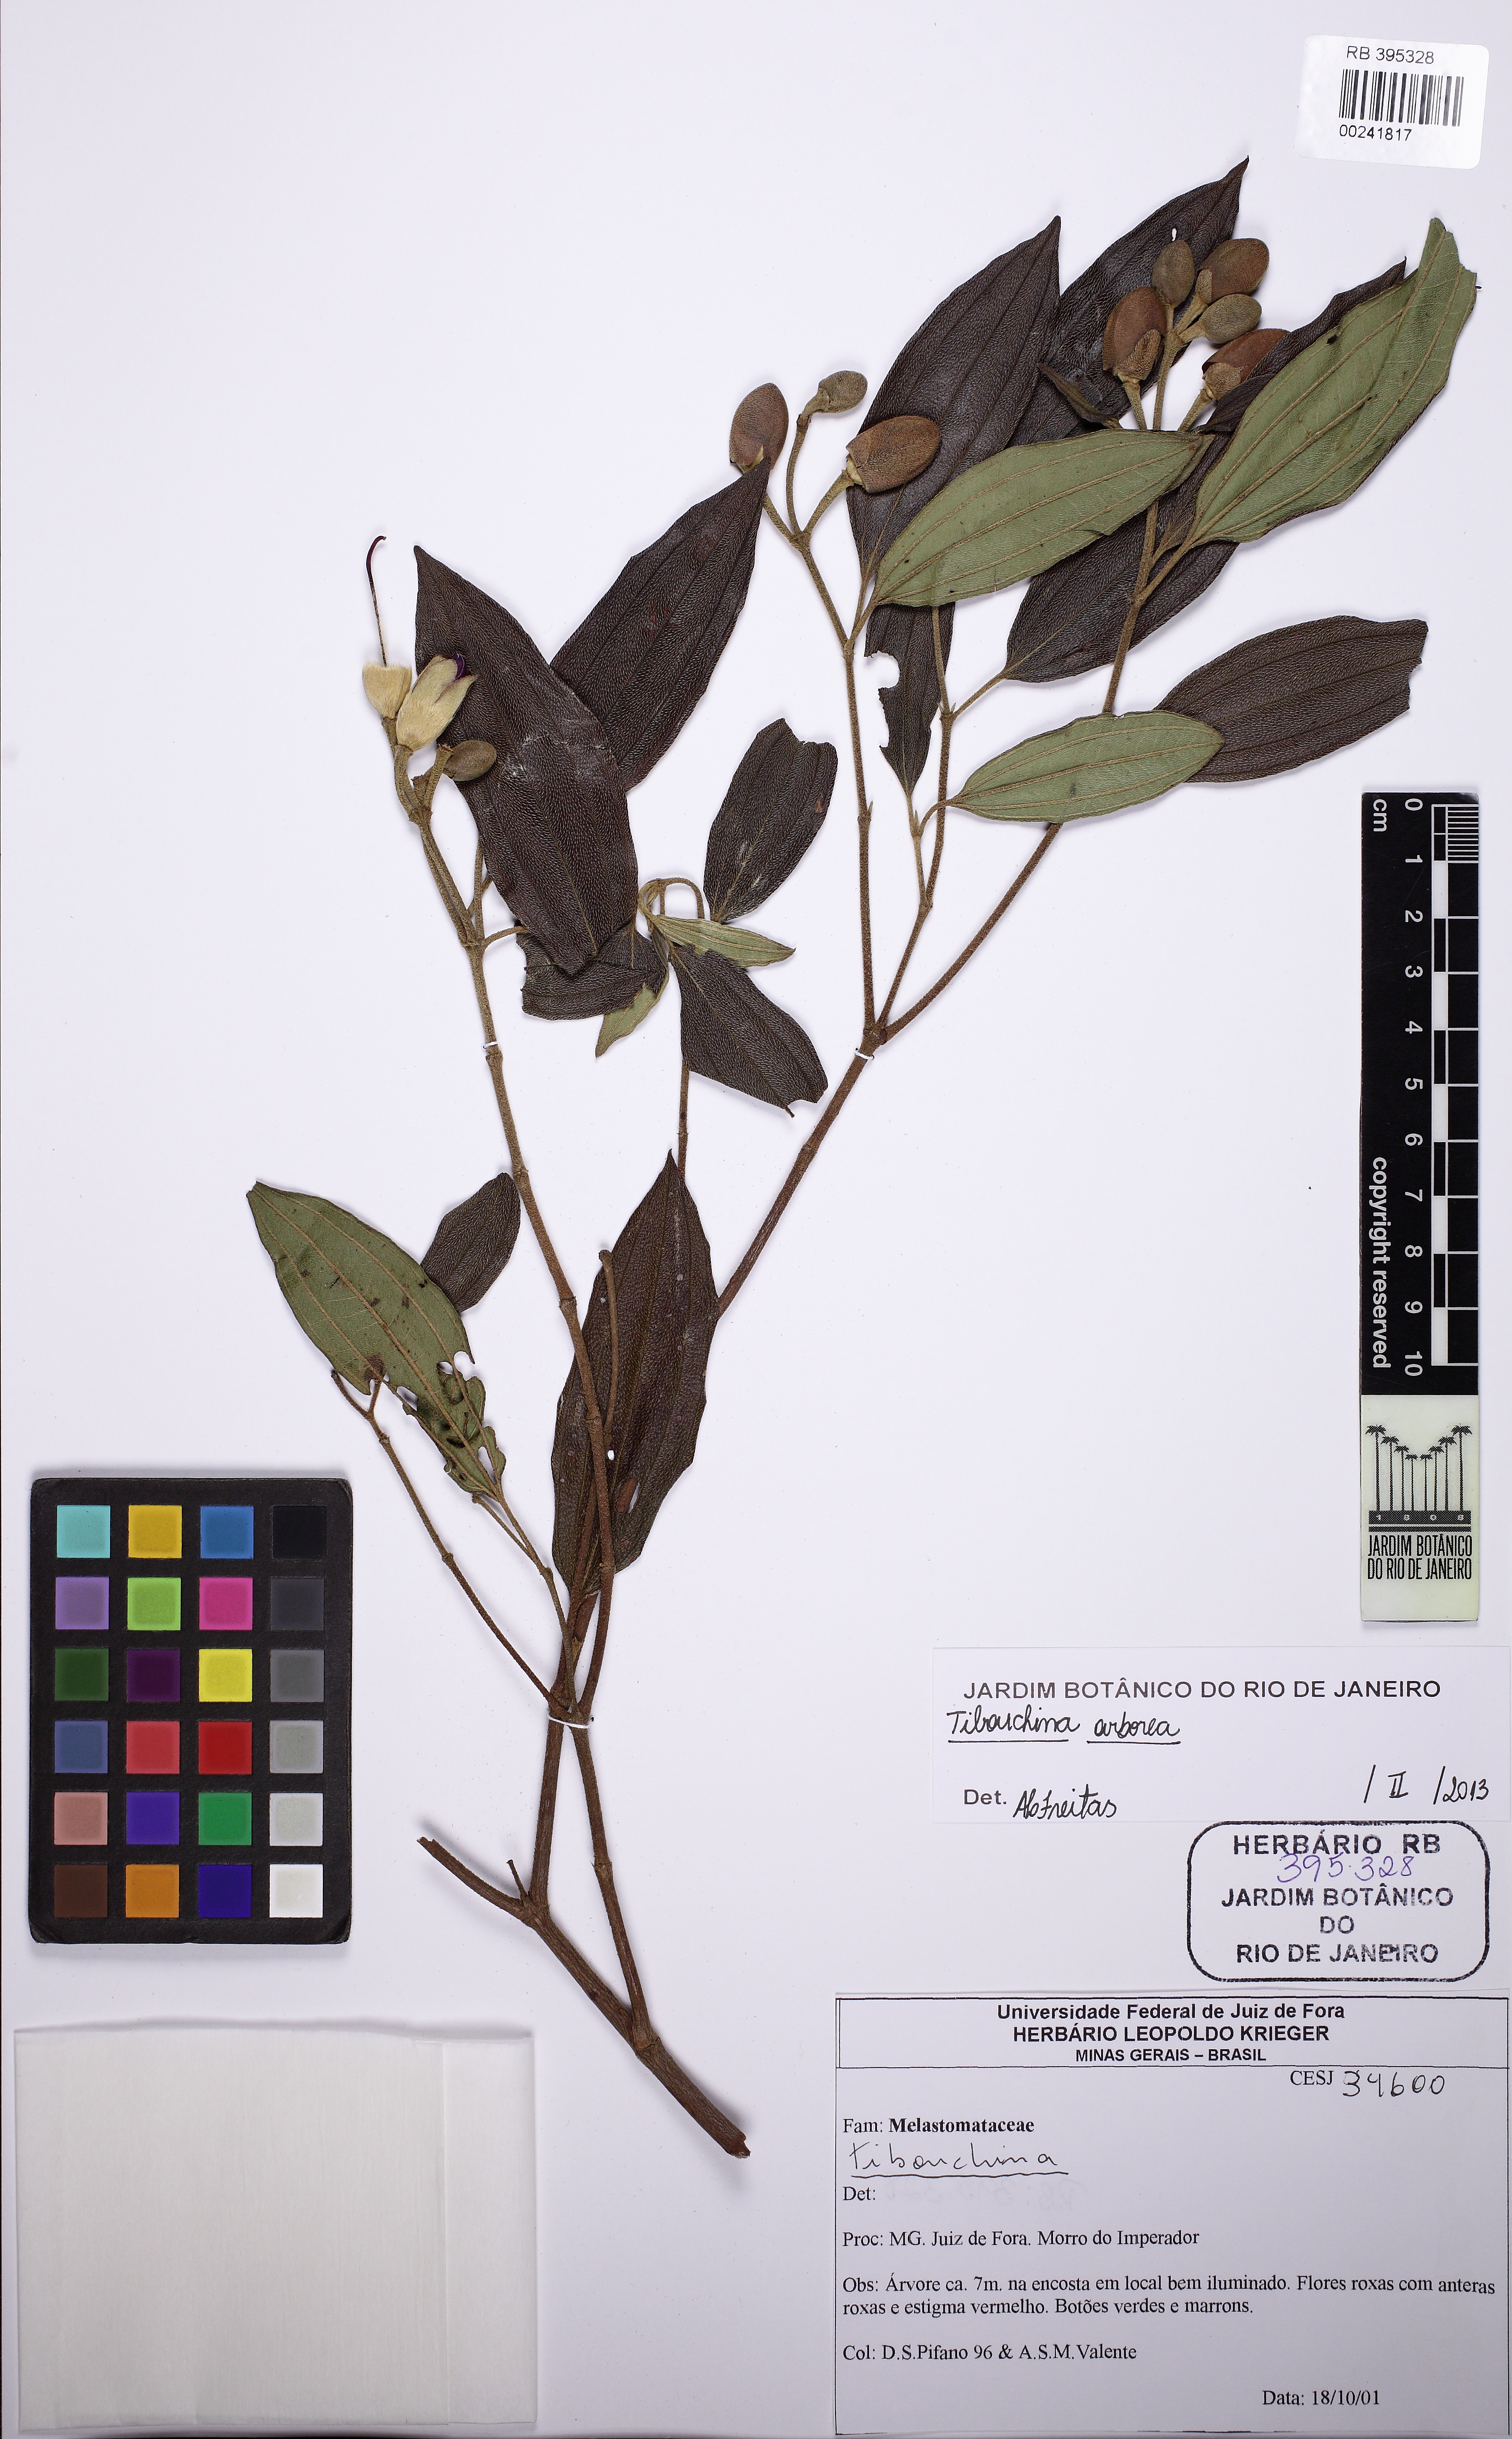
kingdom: Plantae
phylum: Tracheophyta
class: Magnoliopsida
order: Myrtales
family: Melastomataceae
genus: Pleroma
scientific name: Pleroma arboreum
